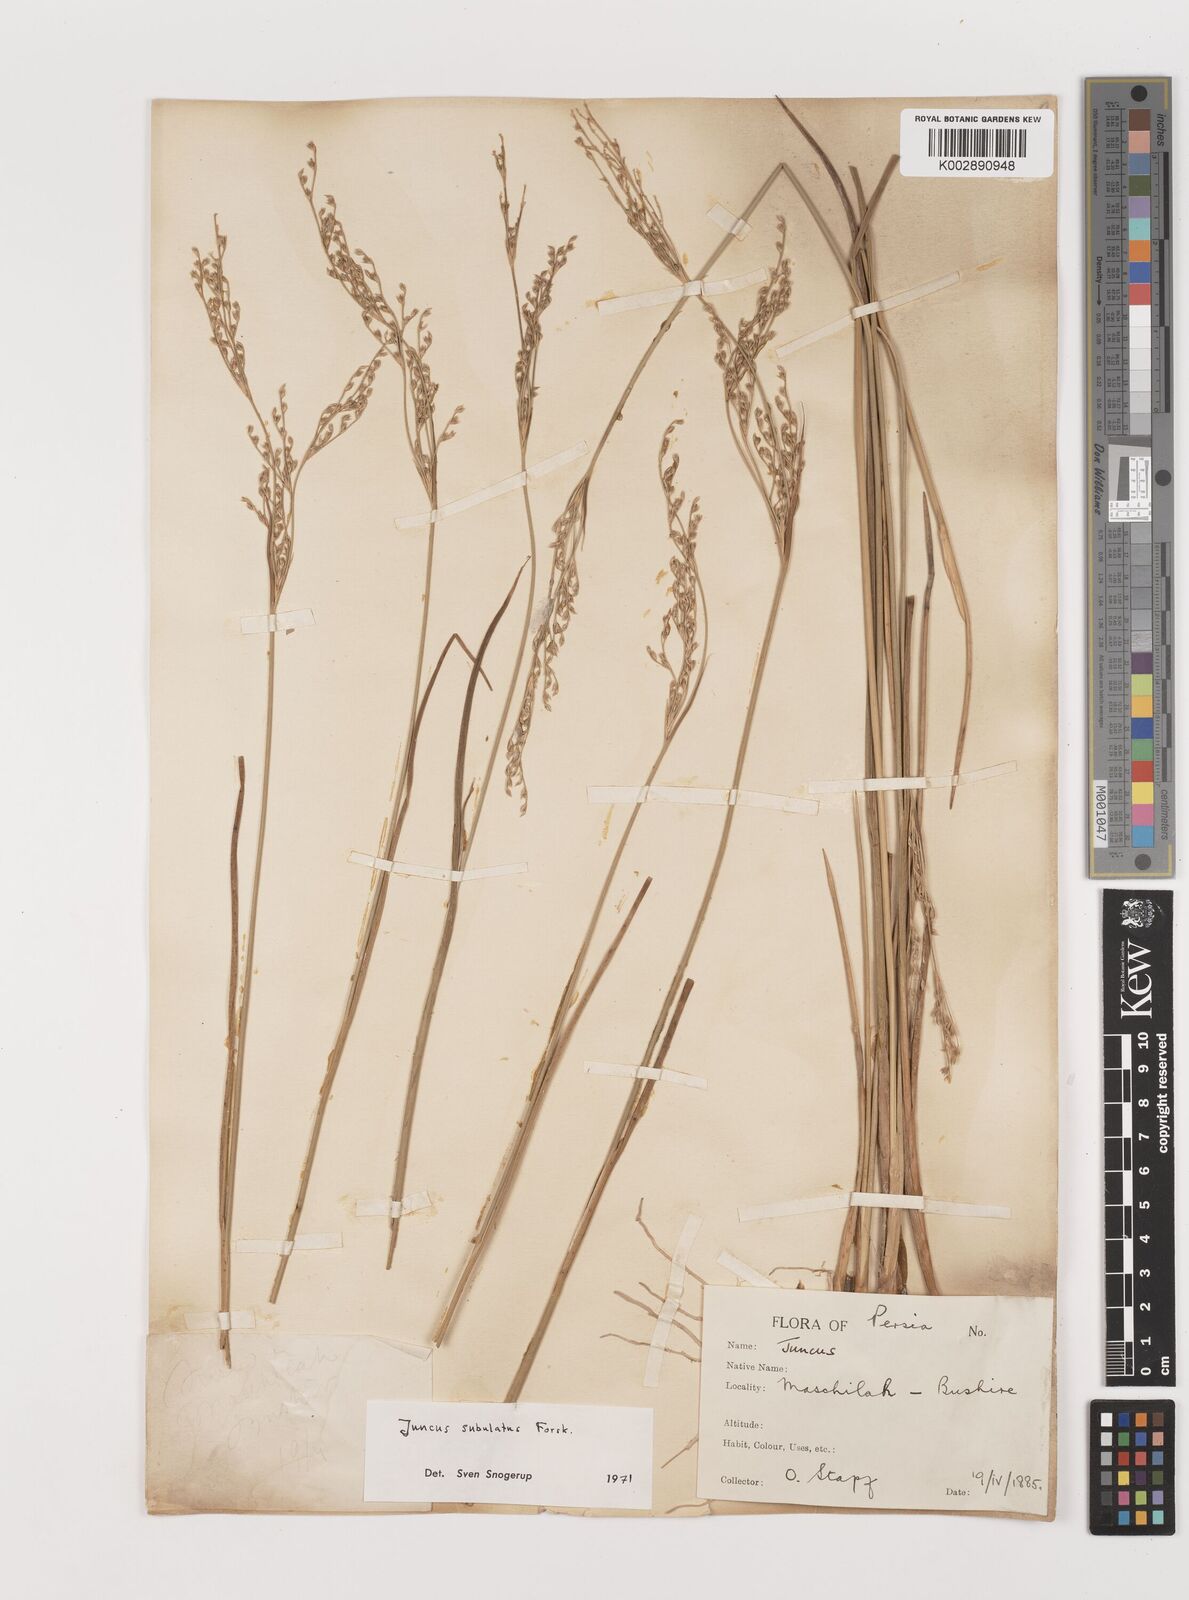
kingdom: Plantae
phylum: Tracheophyta
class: Liliopsida
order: Poales
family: Juncaceae
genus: Juncus
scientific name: Juncus subulatus
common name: Somerset rush
